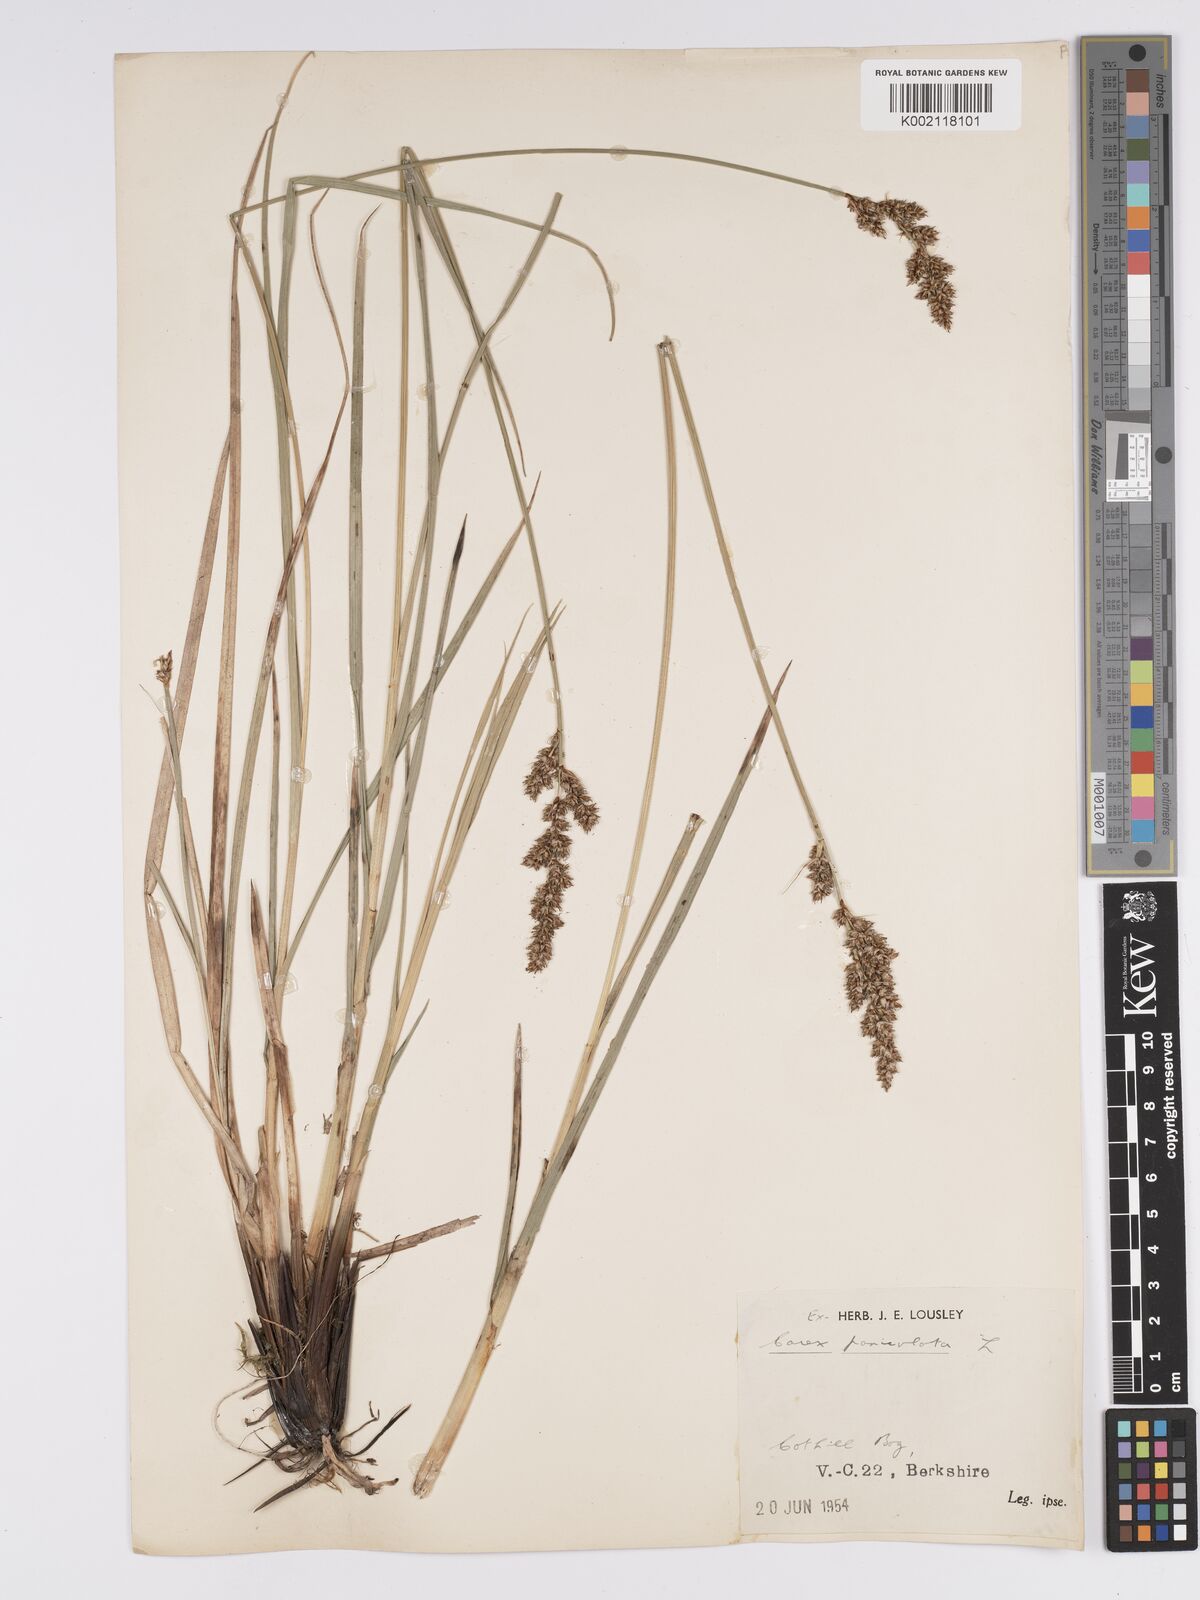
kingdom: Plantae
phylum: Tracheophyta
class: Liliopsida
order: Poales
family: Cyperaceae
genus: Carex
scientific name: Carex paniculata
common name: Greater tussock-sedge
